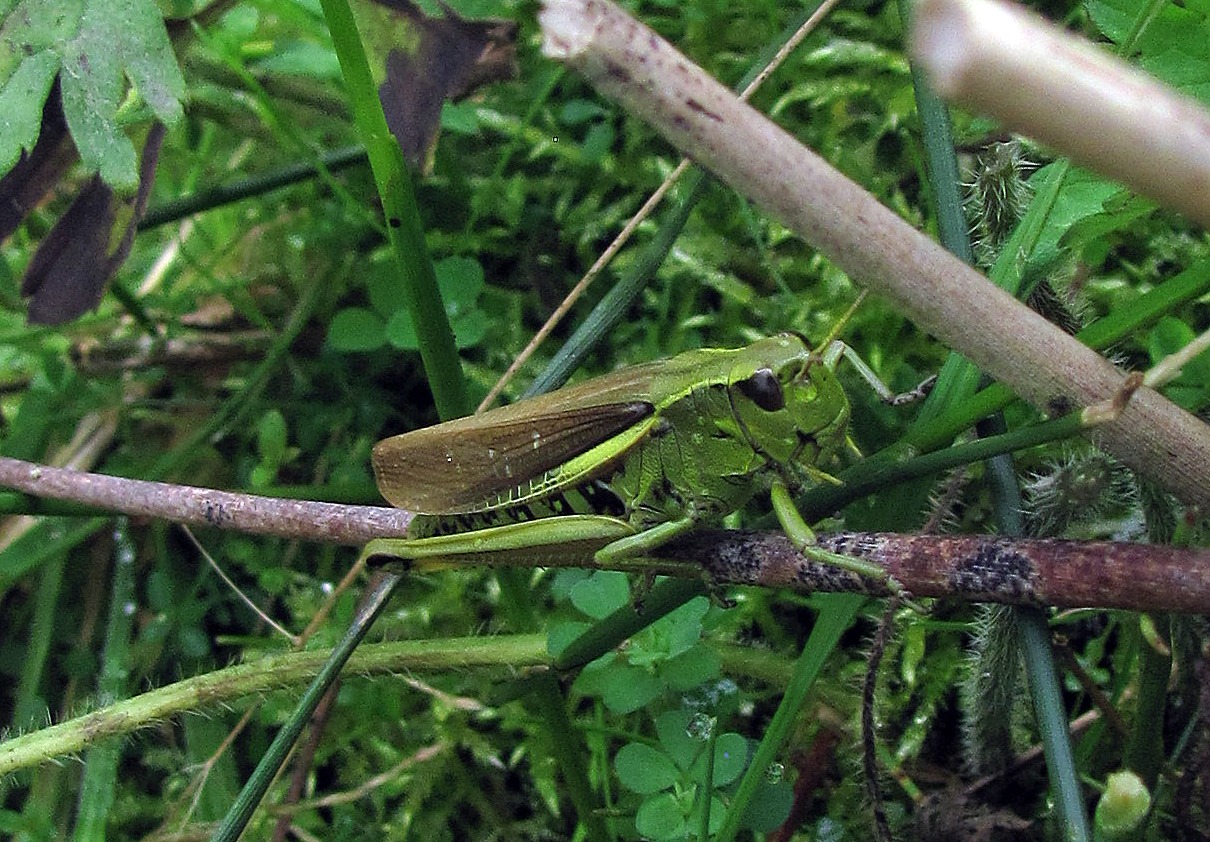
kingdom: Animalia
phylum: Arthropoda
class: Insecta
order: Orthoptera
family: Acrididae
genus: Stethophyma
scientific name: Stethophyma grossum
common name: Sumpgræshoppe
